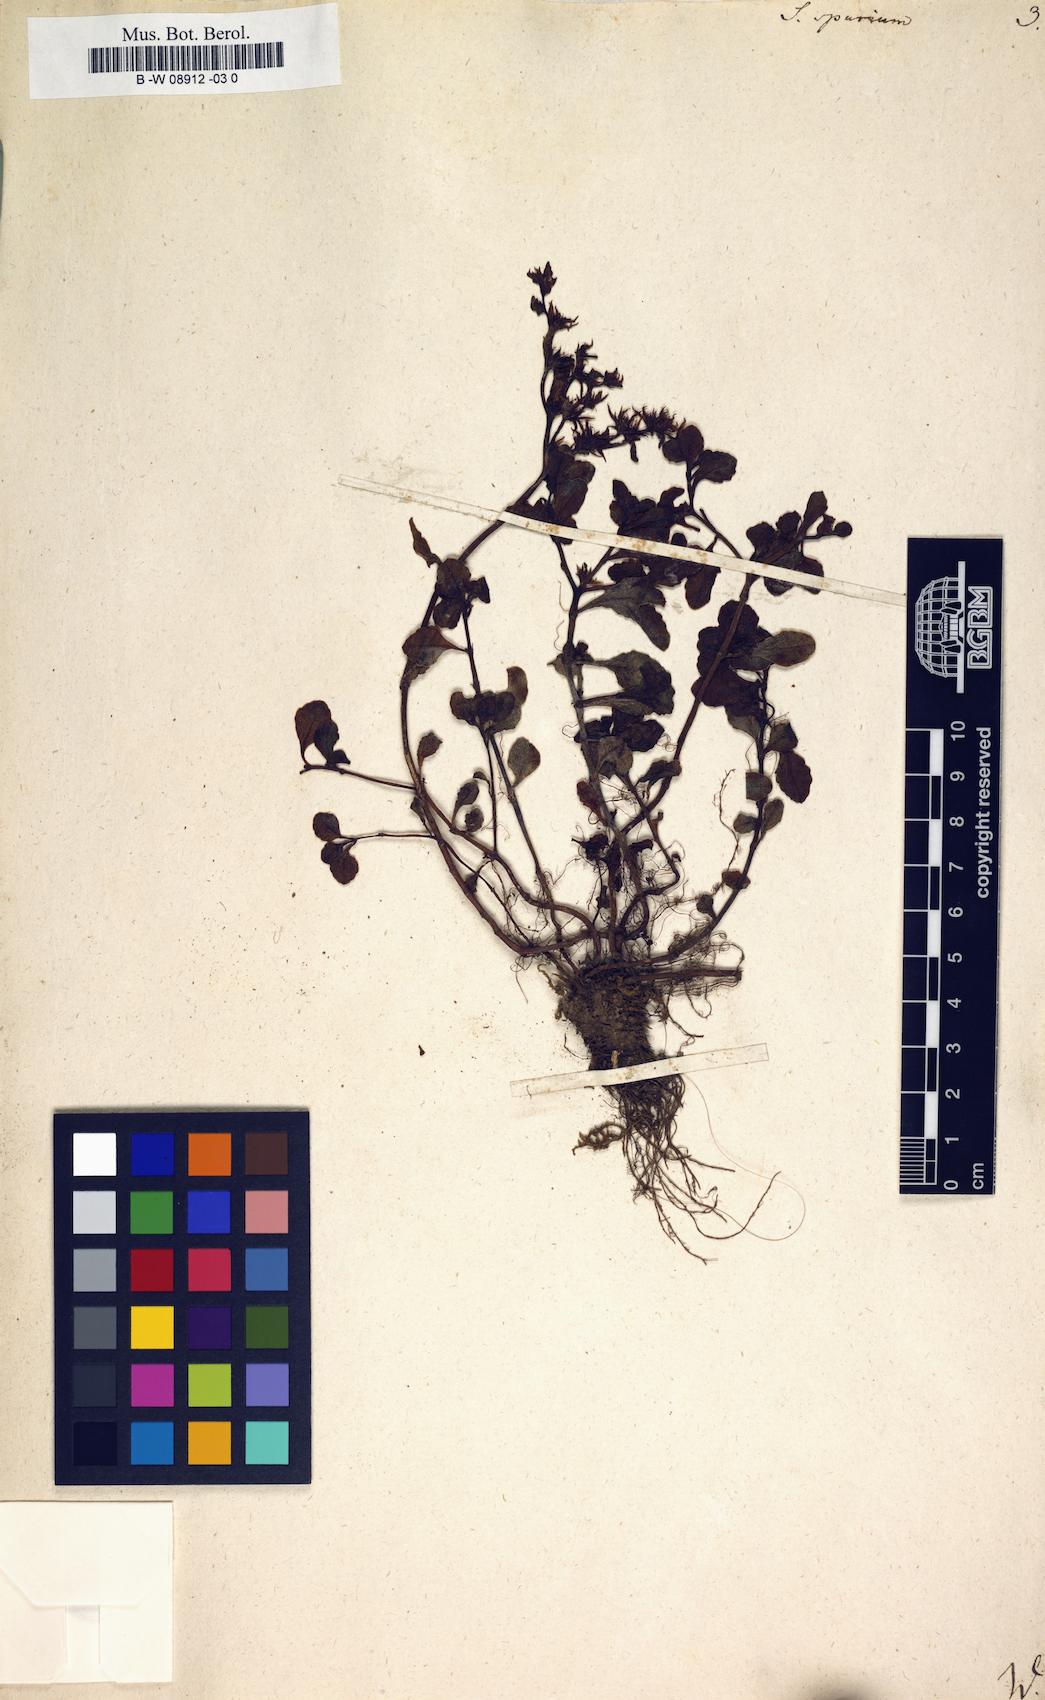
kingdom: Plantae
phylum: Tracheophyta
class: Magnoliopsida
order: Saxifragales
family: Crassulaceae
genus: Sedum
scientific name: Sedum spurium
